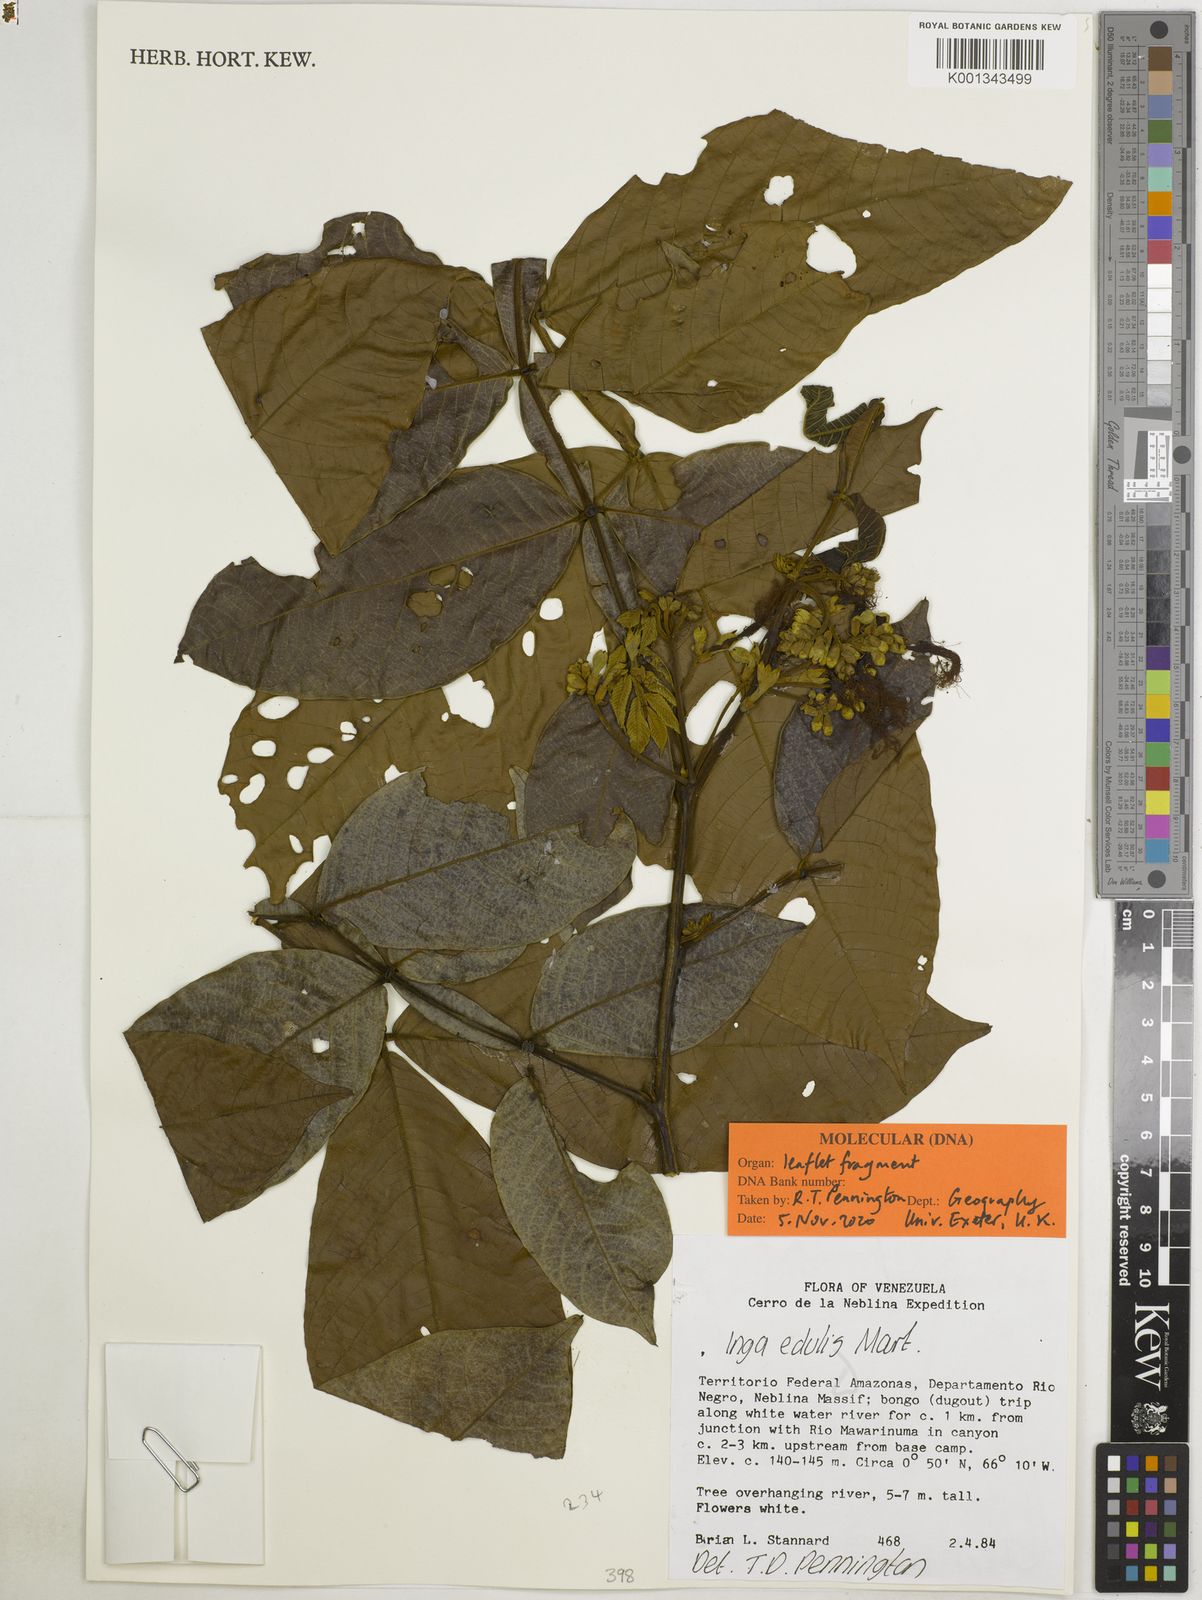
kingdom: Plantae
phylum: Tracheophyta
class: Magnoliopsida
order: Fabales
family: Fabaceae
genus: Inga
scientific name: Inga edulis
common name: Ice cream bean
